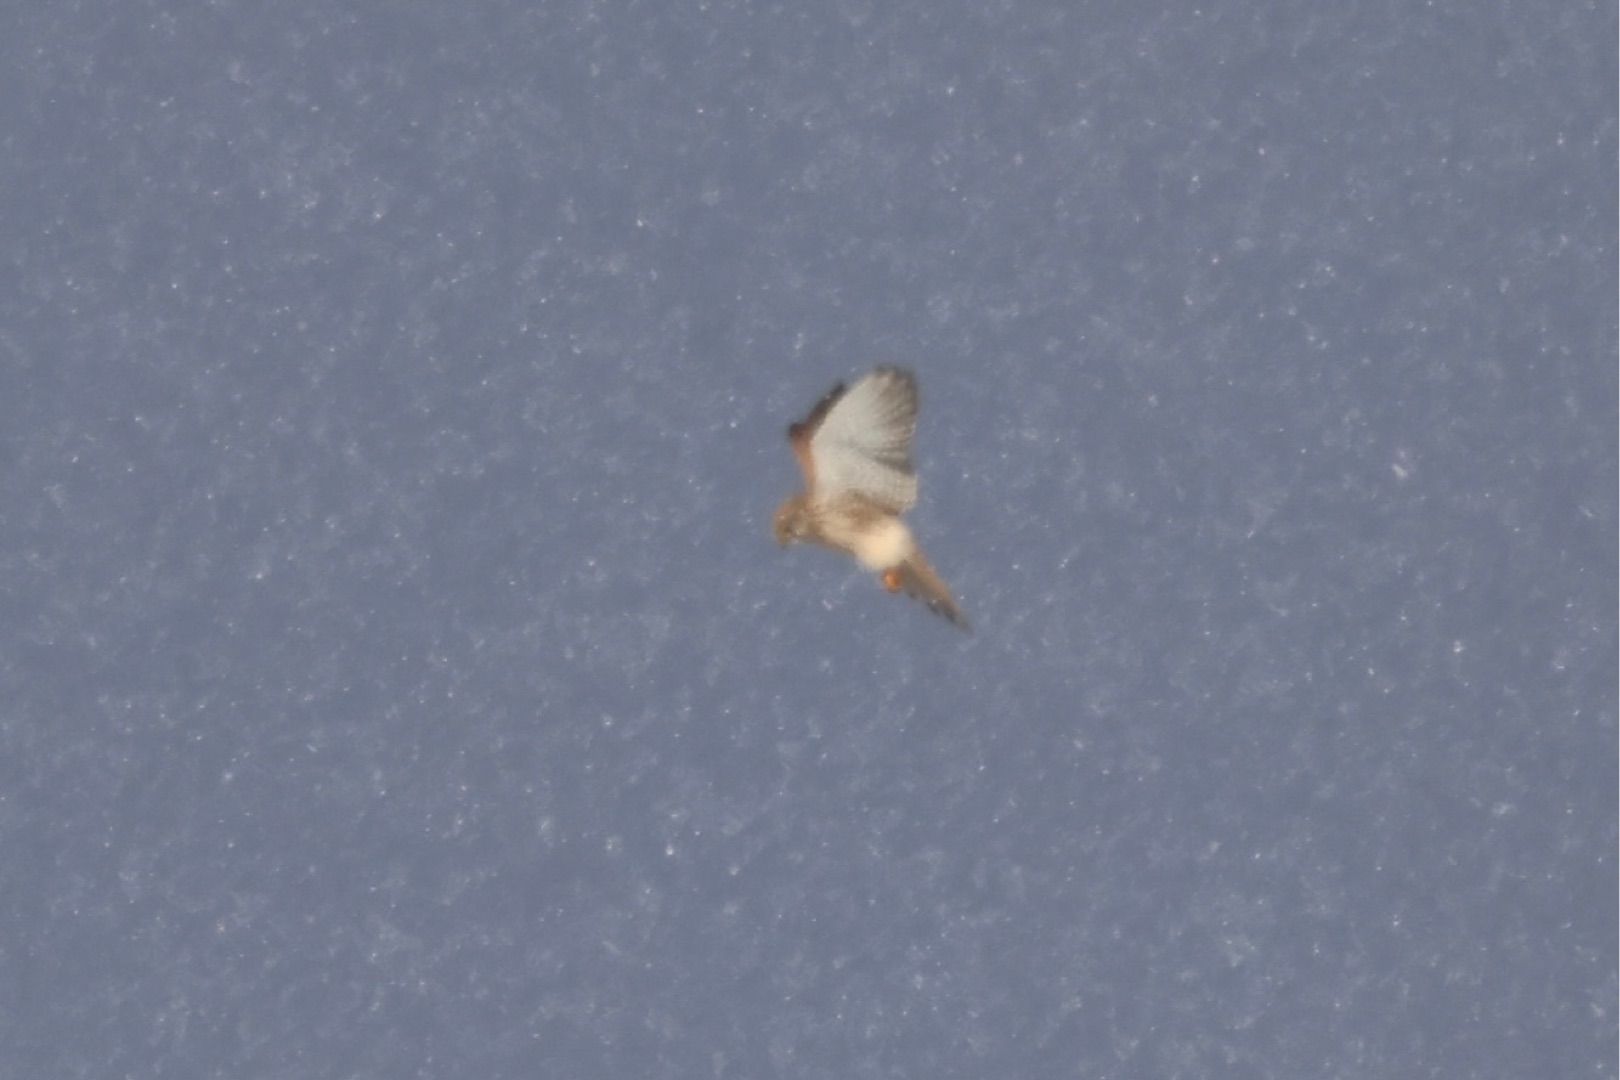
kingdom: Animalia
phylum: Chordata
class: Aves
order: Falconiformes
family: Falconidae
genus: Falco
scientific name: Falco tinnunculus
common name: Tårnfalk
